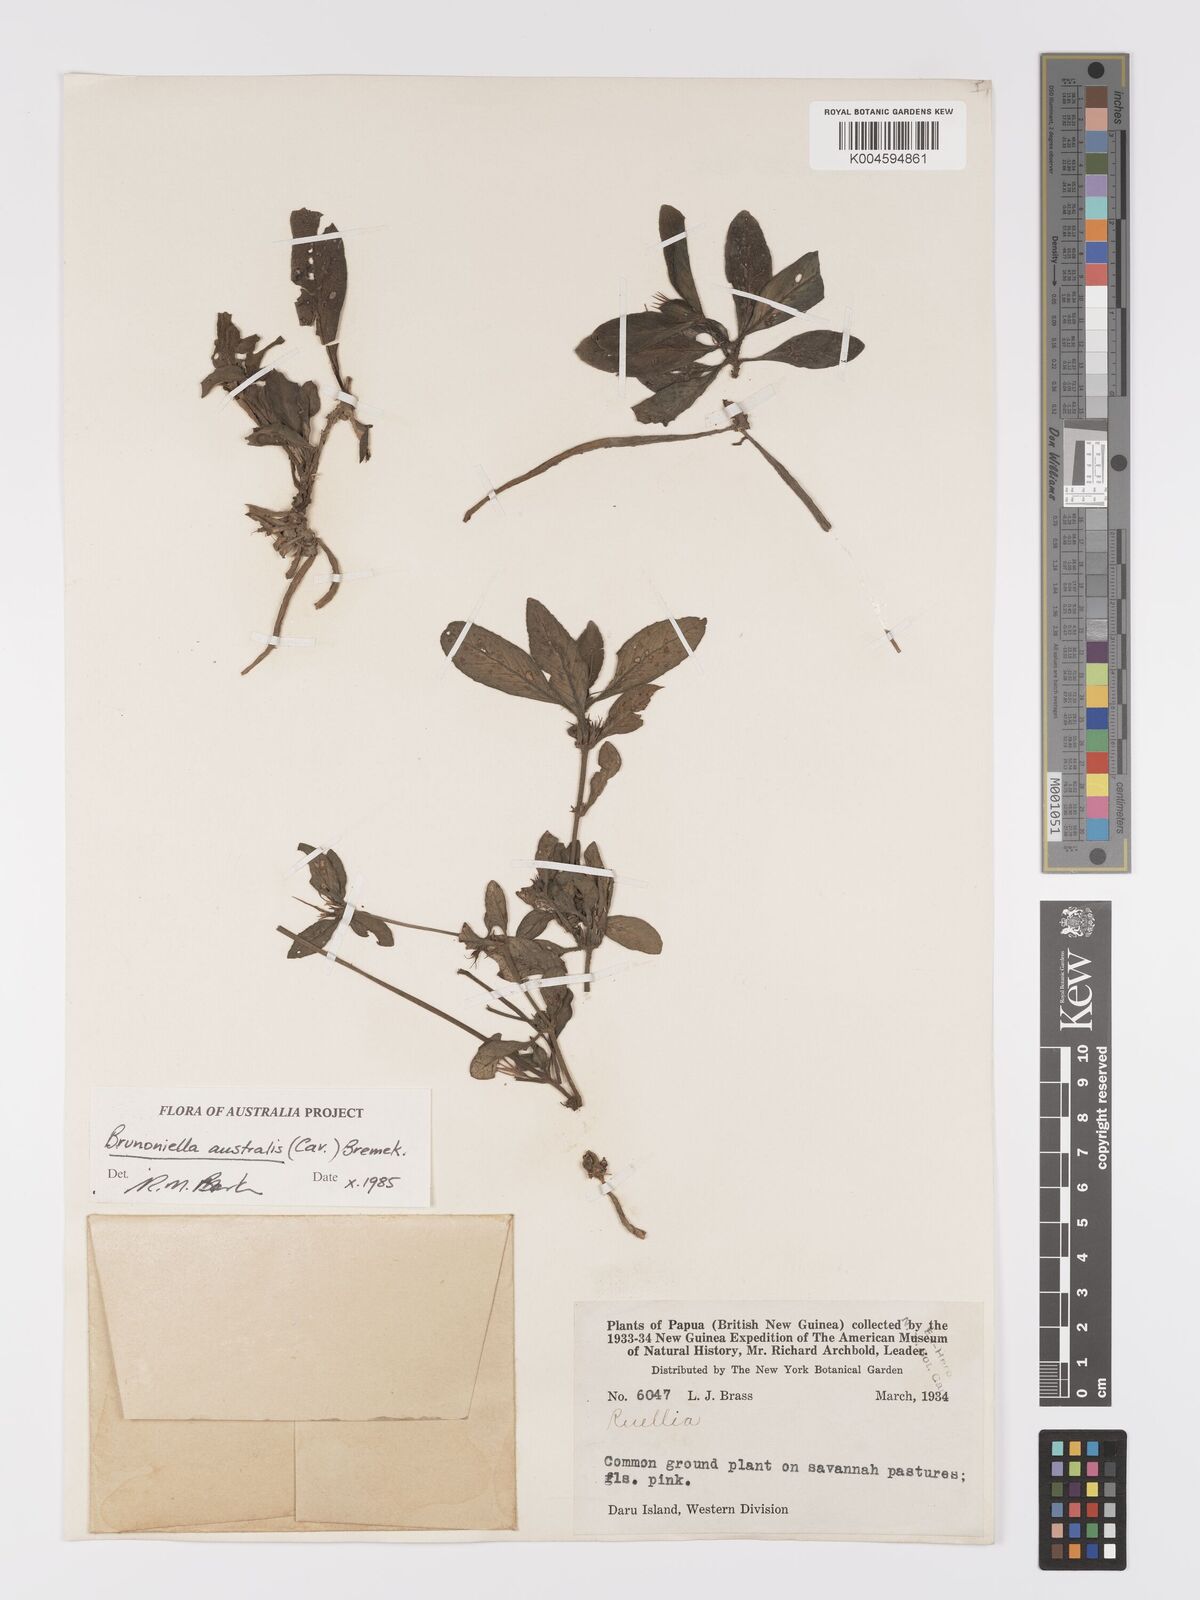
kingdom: Plantae
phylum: Tracheophyta
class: Magnoliopsida
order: Lamiales
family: Acanthaceae
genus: Brunoniella
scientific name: Brunoniella australis
